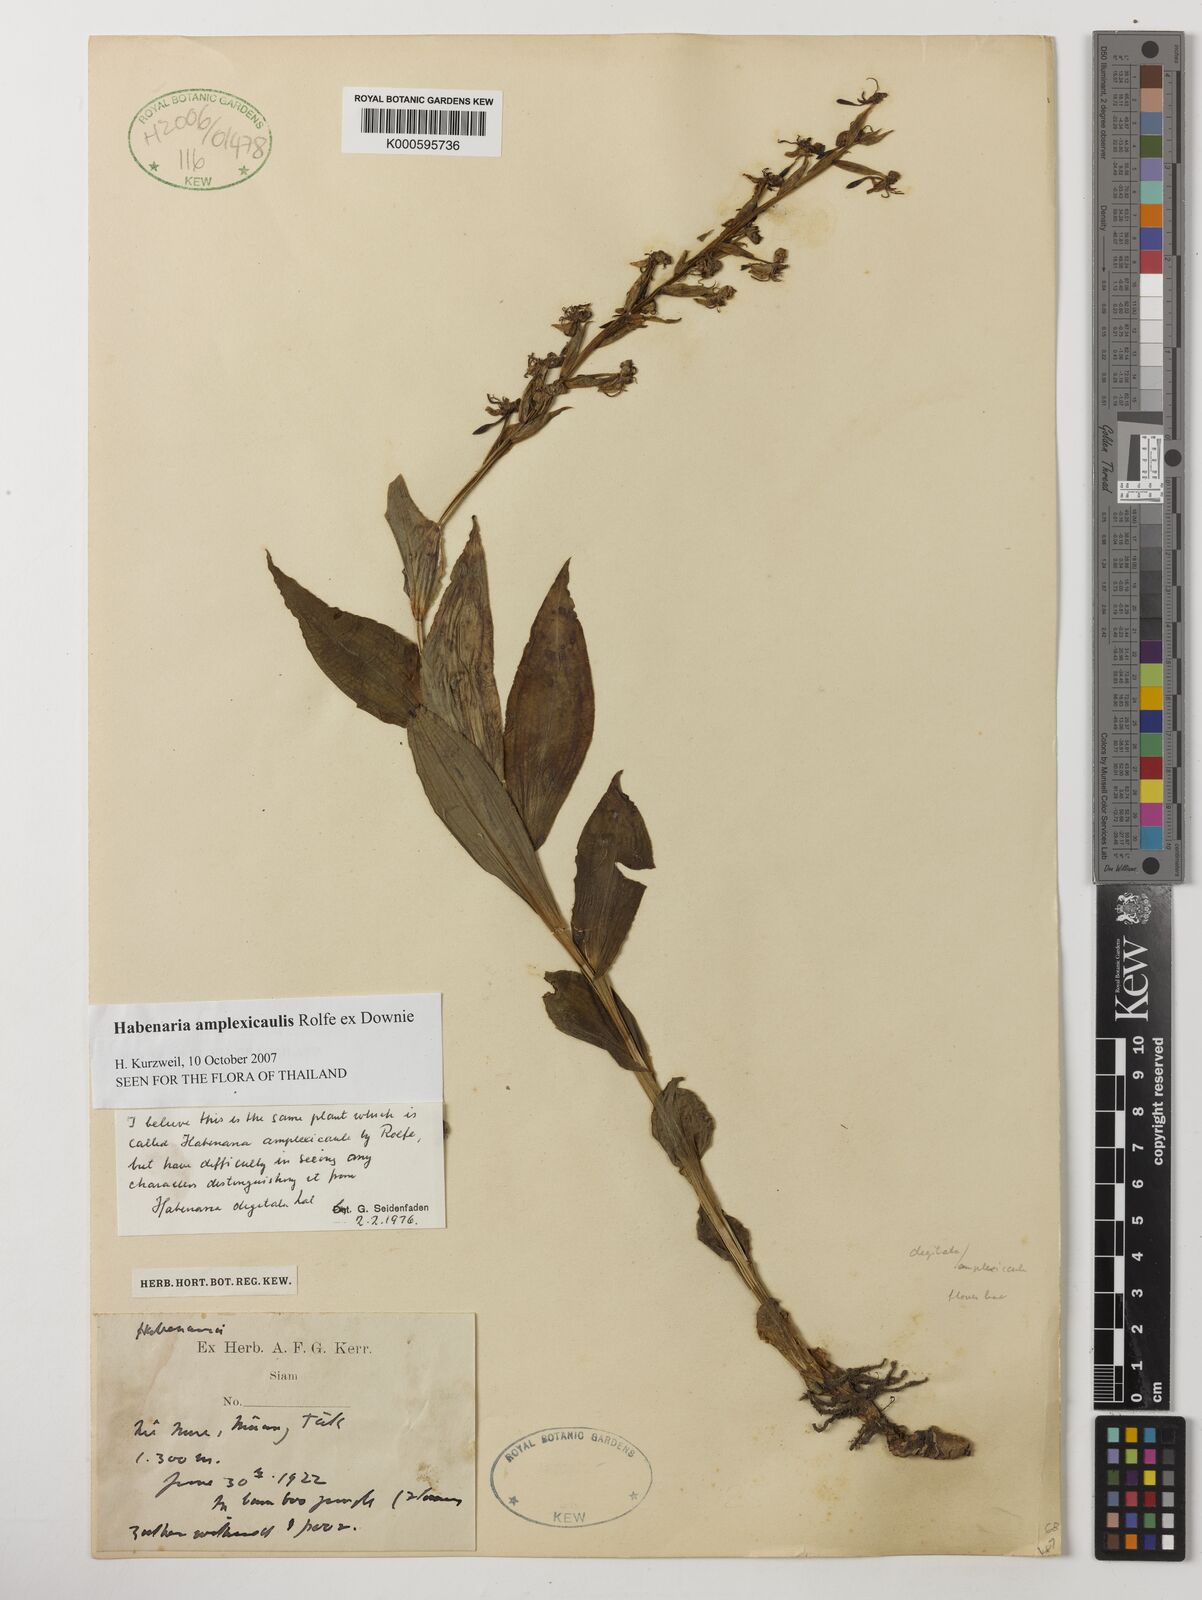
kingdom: Plantae
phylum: Tracheophyta
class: Liliopsida
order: Asparagales
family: Orchidaceae
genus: Habenaria
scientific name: Habenaria amplexicaulis
